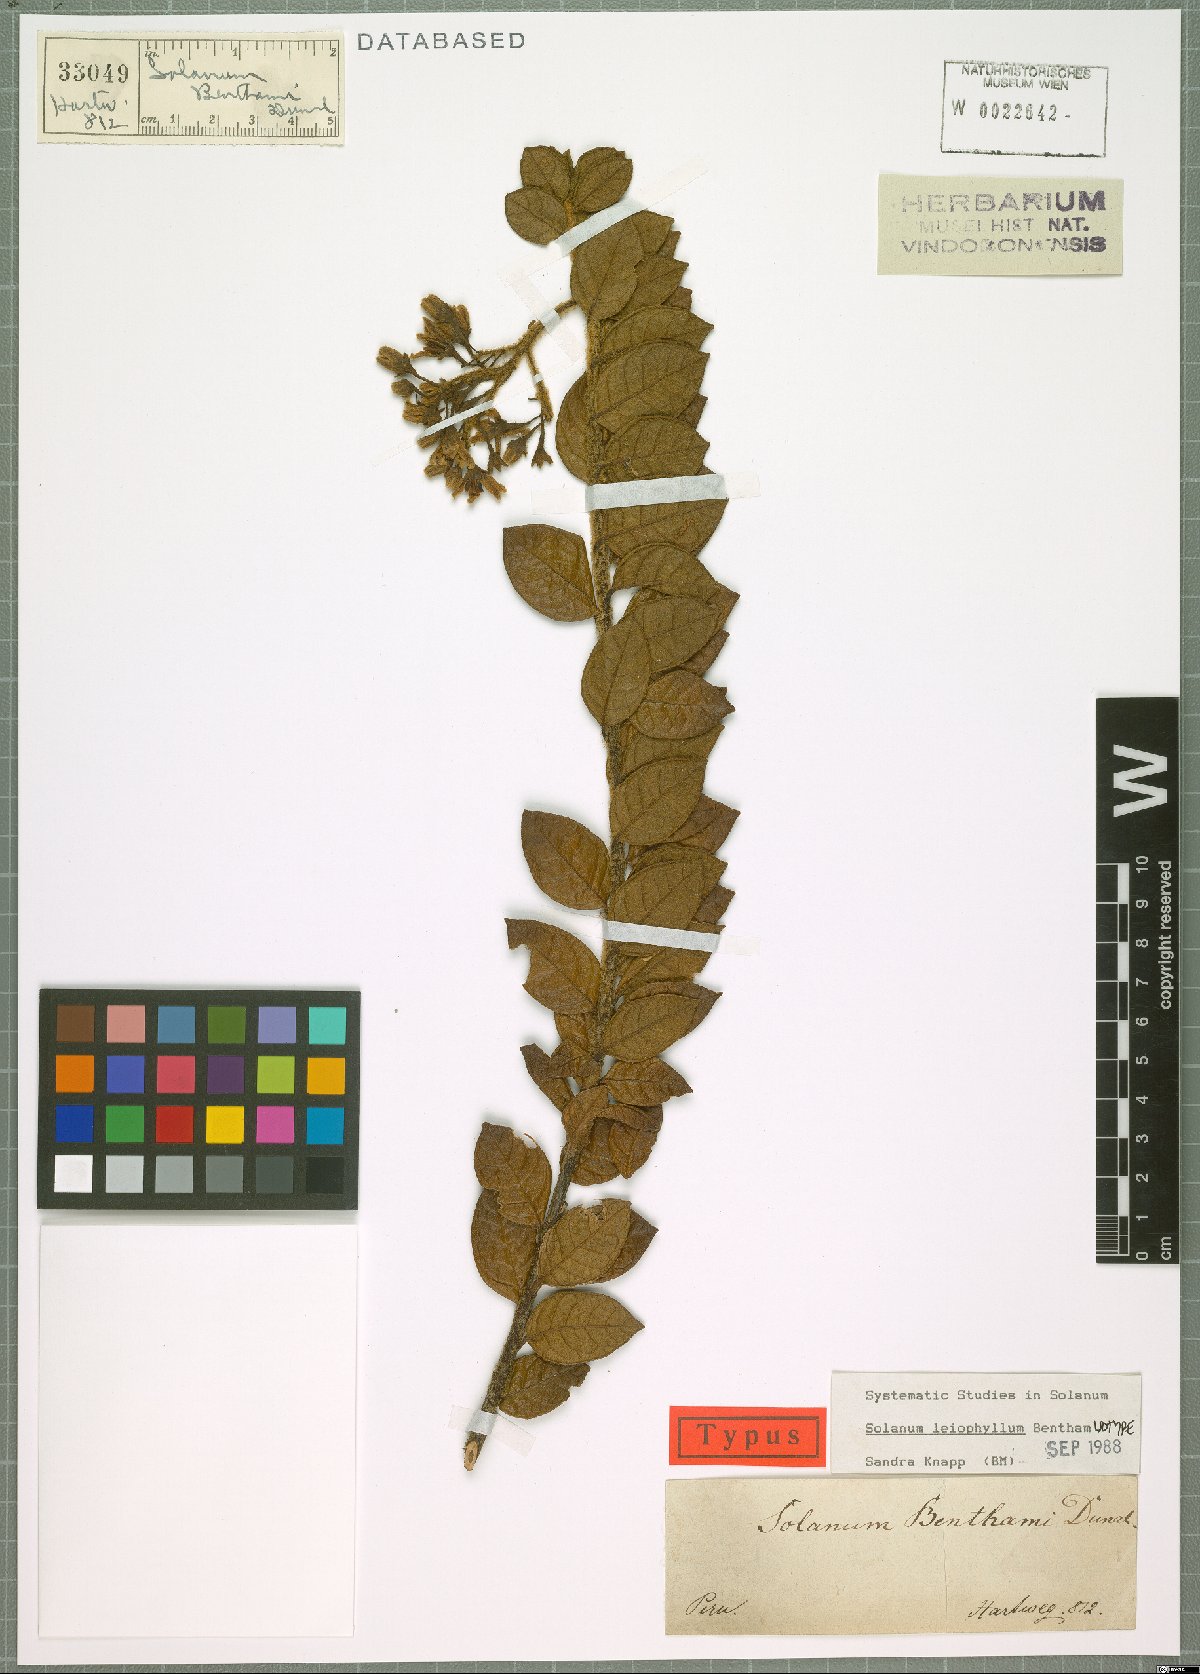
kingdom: Plantae
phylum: Tracheophyta
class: Magnoliopsida
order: Solanales
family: Solanaceae
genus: Solanum
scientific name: Solanum leiophyllum
